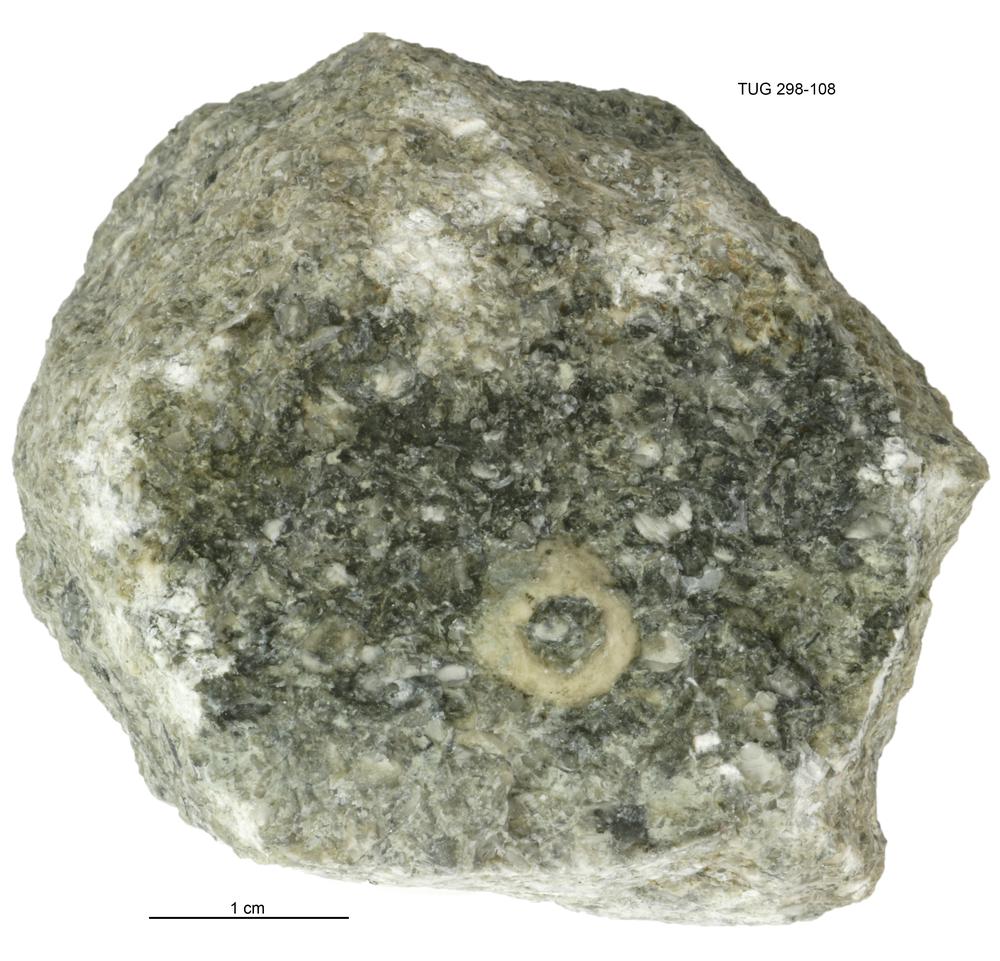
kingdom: Animalia
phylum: Echinodermata
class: Crinoidea
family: Eucalyptocrinitidae
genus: Eucalyptocrinites
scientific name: Eucalyptocrinites
